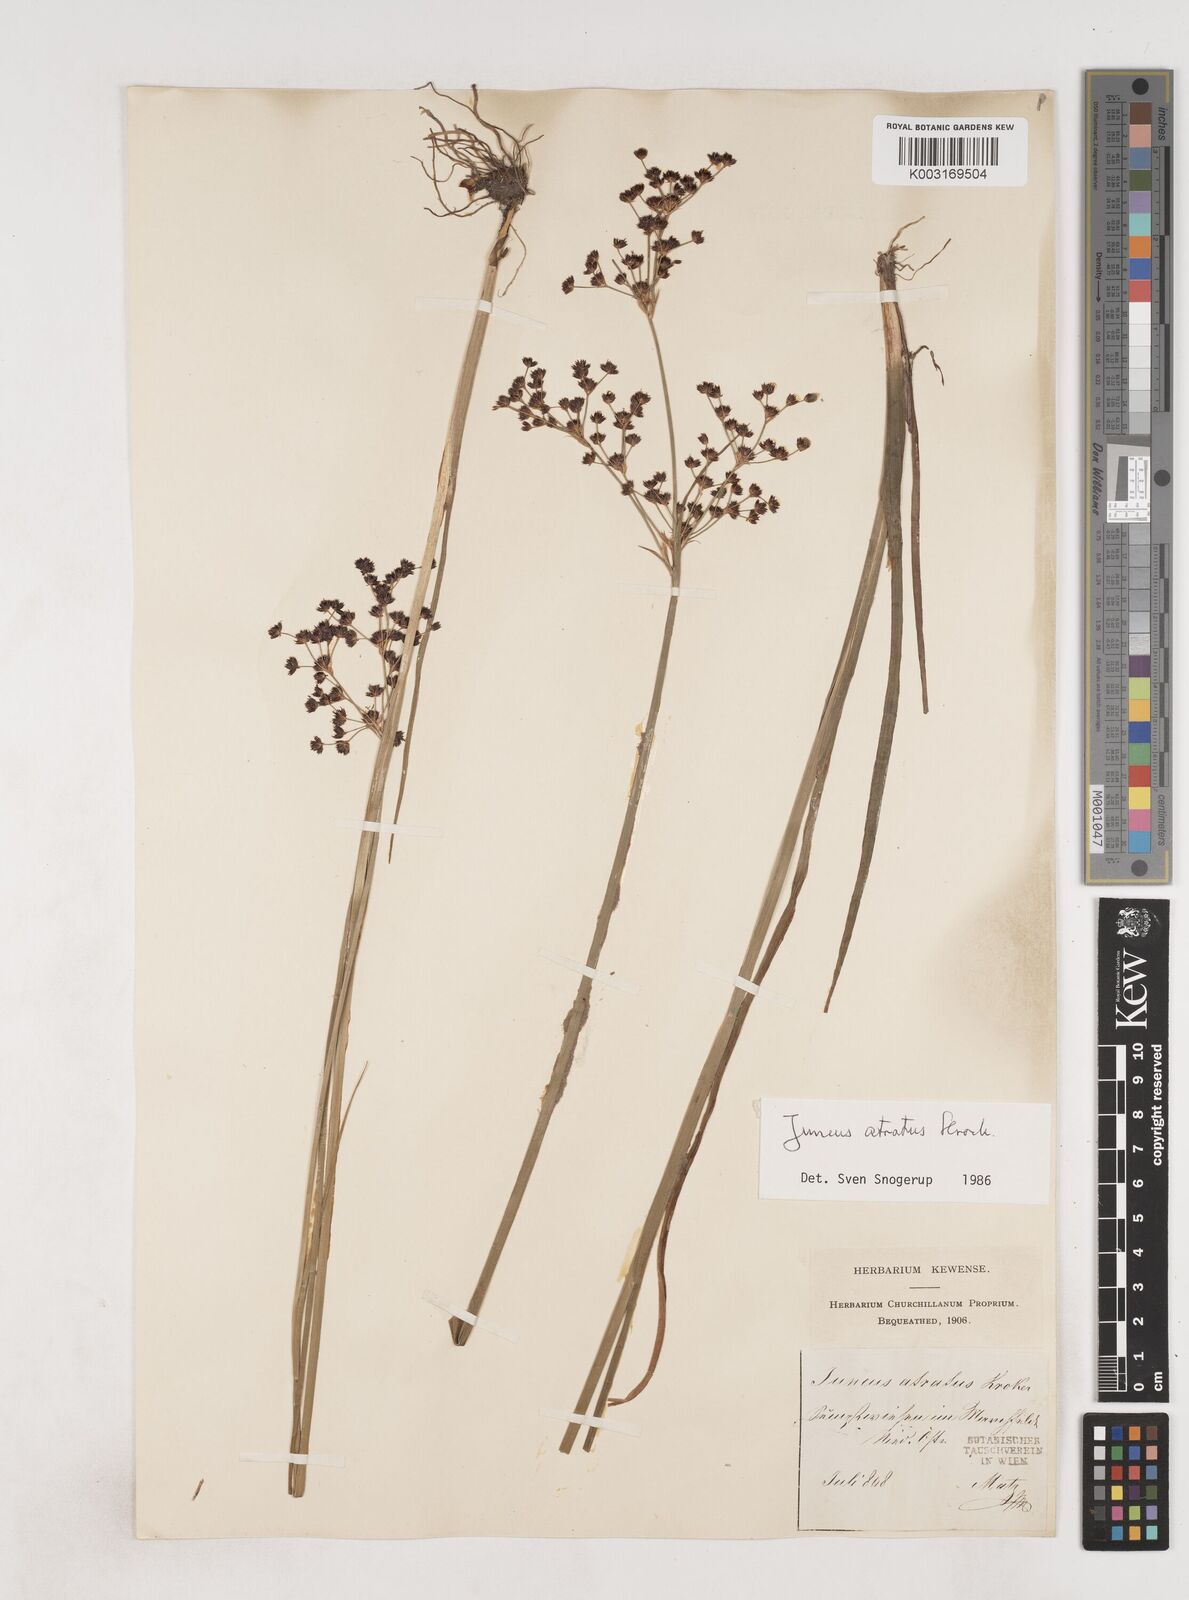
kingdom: Plantae
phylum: Tracheophyta
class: Liliopsida
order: Poales
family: Juncaceae
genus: Juncus
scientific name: Juncus atratus
